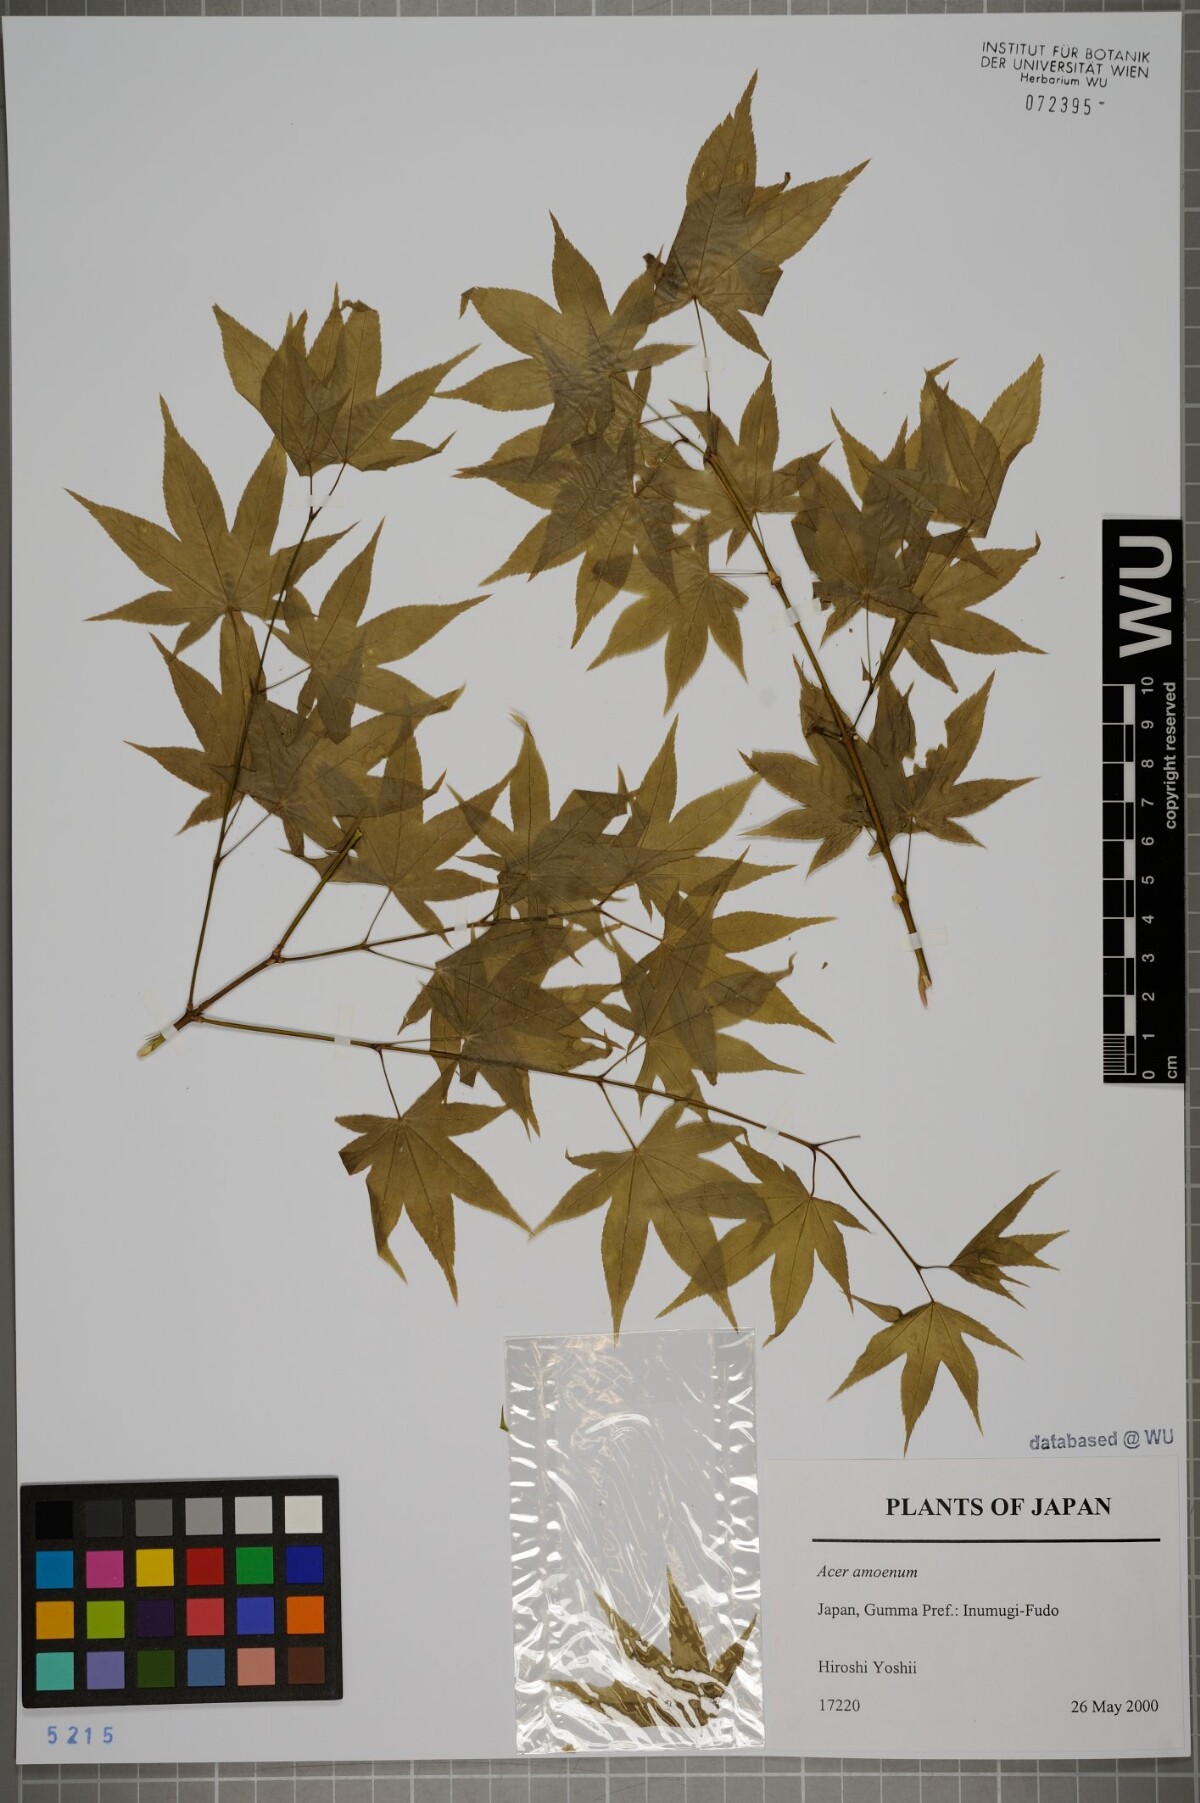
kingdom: Plantae
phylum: Tracheophyta
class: Magnoliopsida
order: Sapindales
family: Sapindaceae
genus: Acer
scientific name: Acer palmatum
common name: Japanese maple
